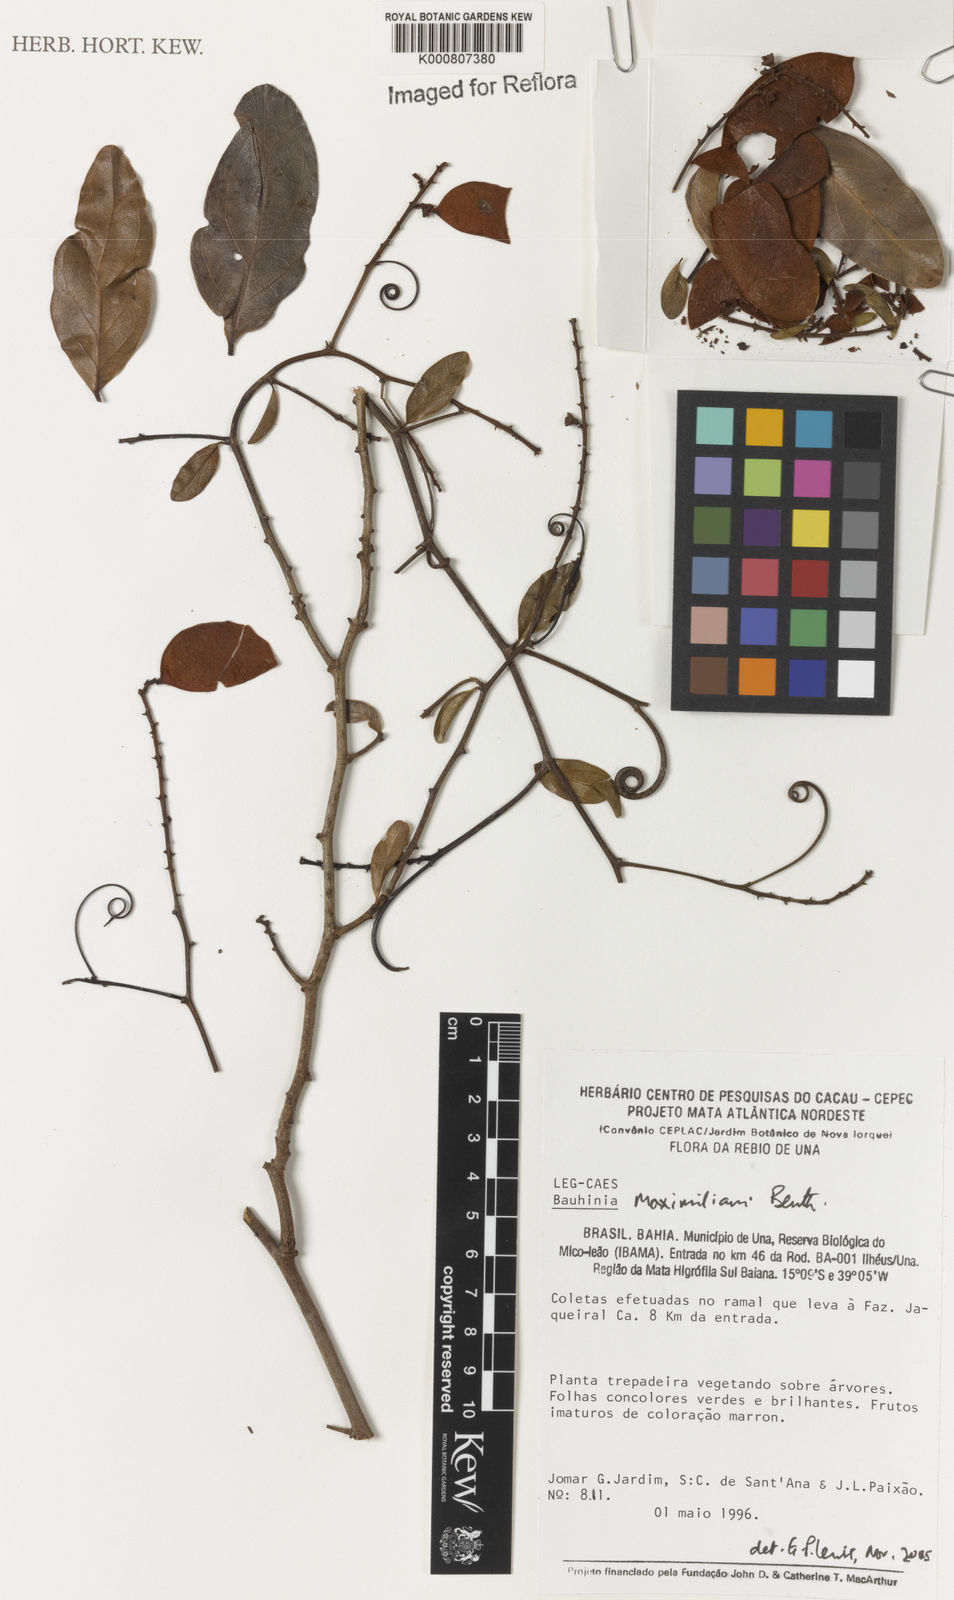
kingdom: Plantae
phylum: Tracheophyta
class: Magnoliopsida
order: Fabales
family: Fabaceae
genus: Schnella
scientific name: Schnella maximiliani
